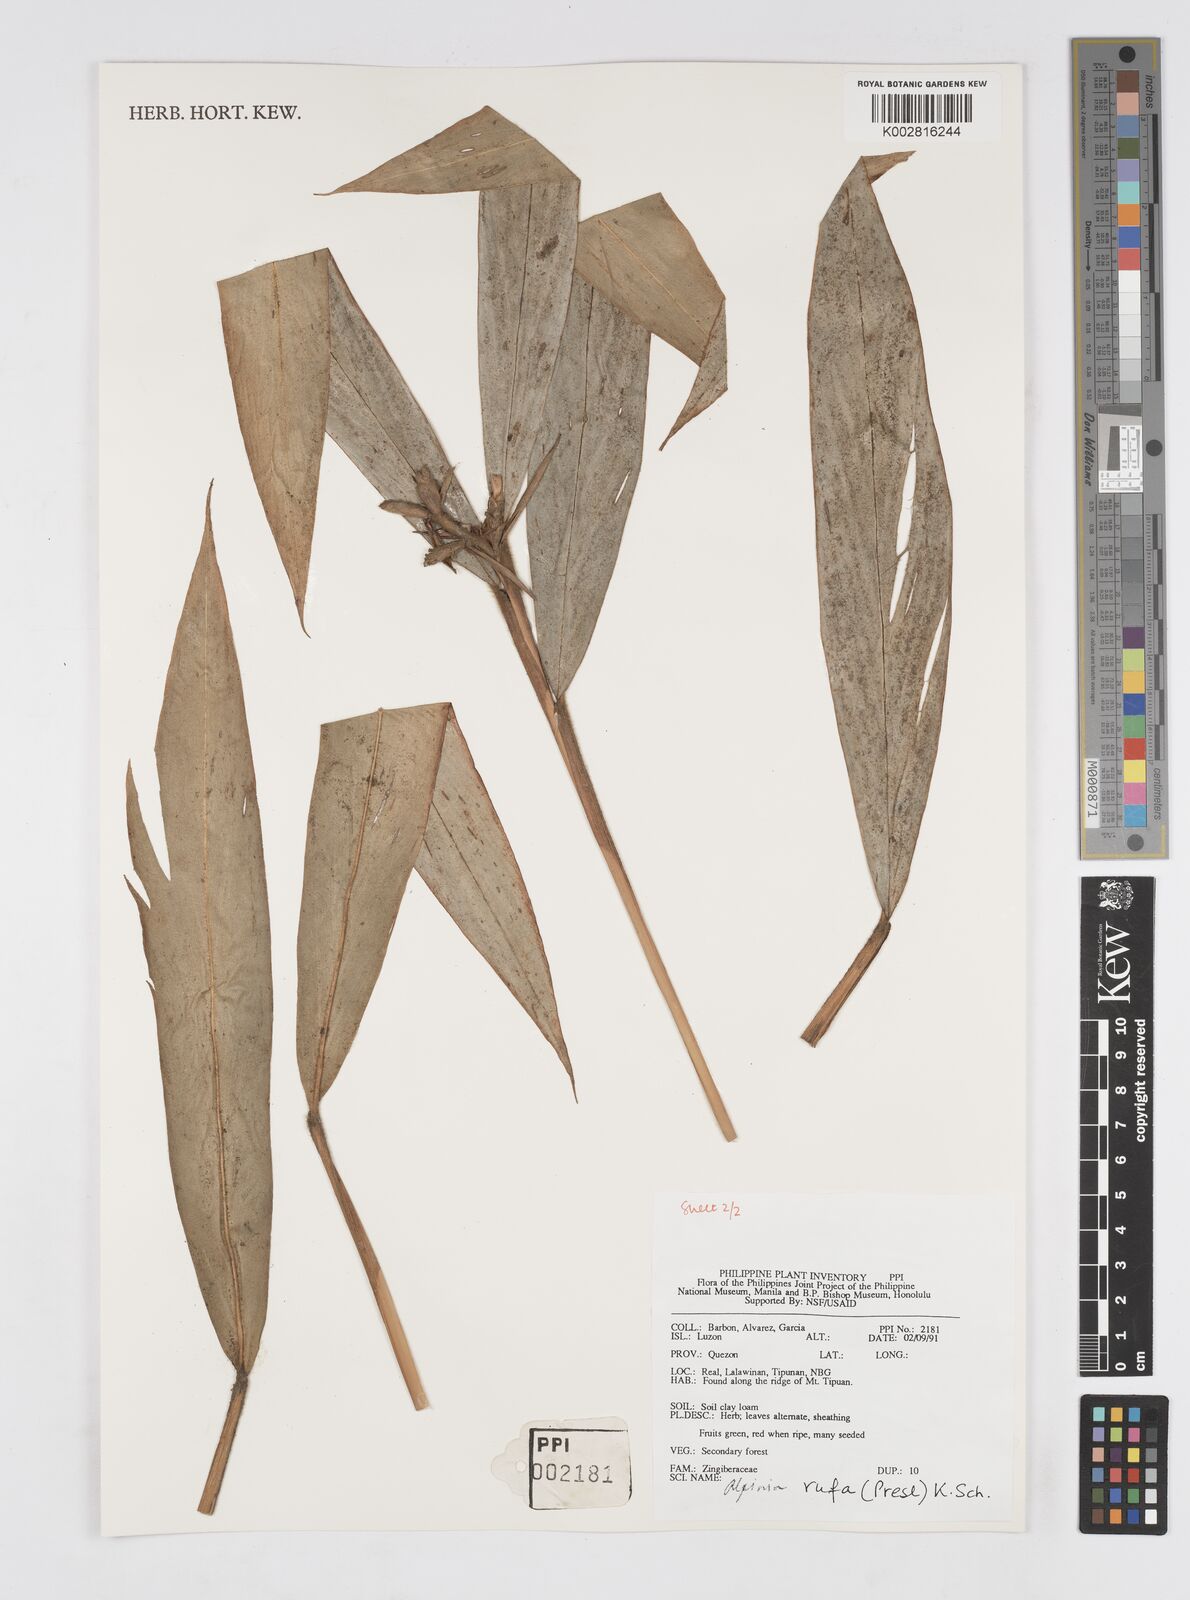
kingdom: Plantae
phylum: Tracheophyta
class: Liliopsida
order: Zingiberales
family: Zingiberaceae
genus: Alpinia
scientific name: Alpinia rufa
